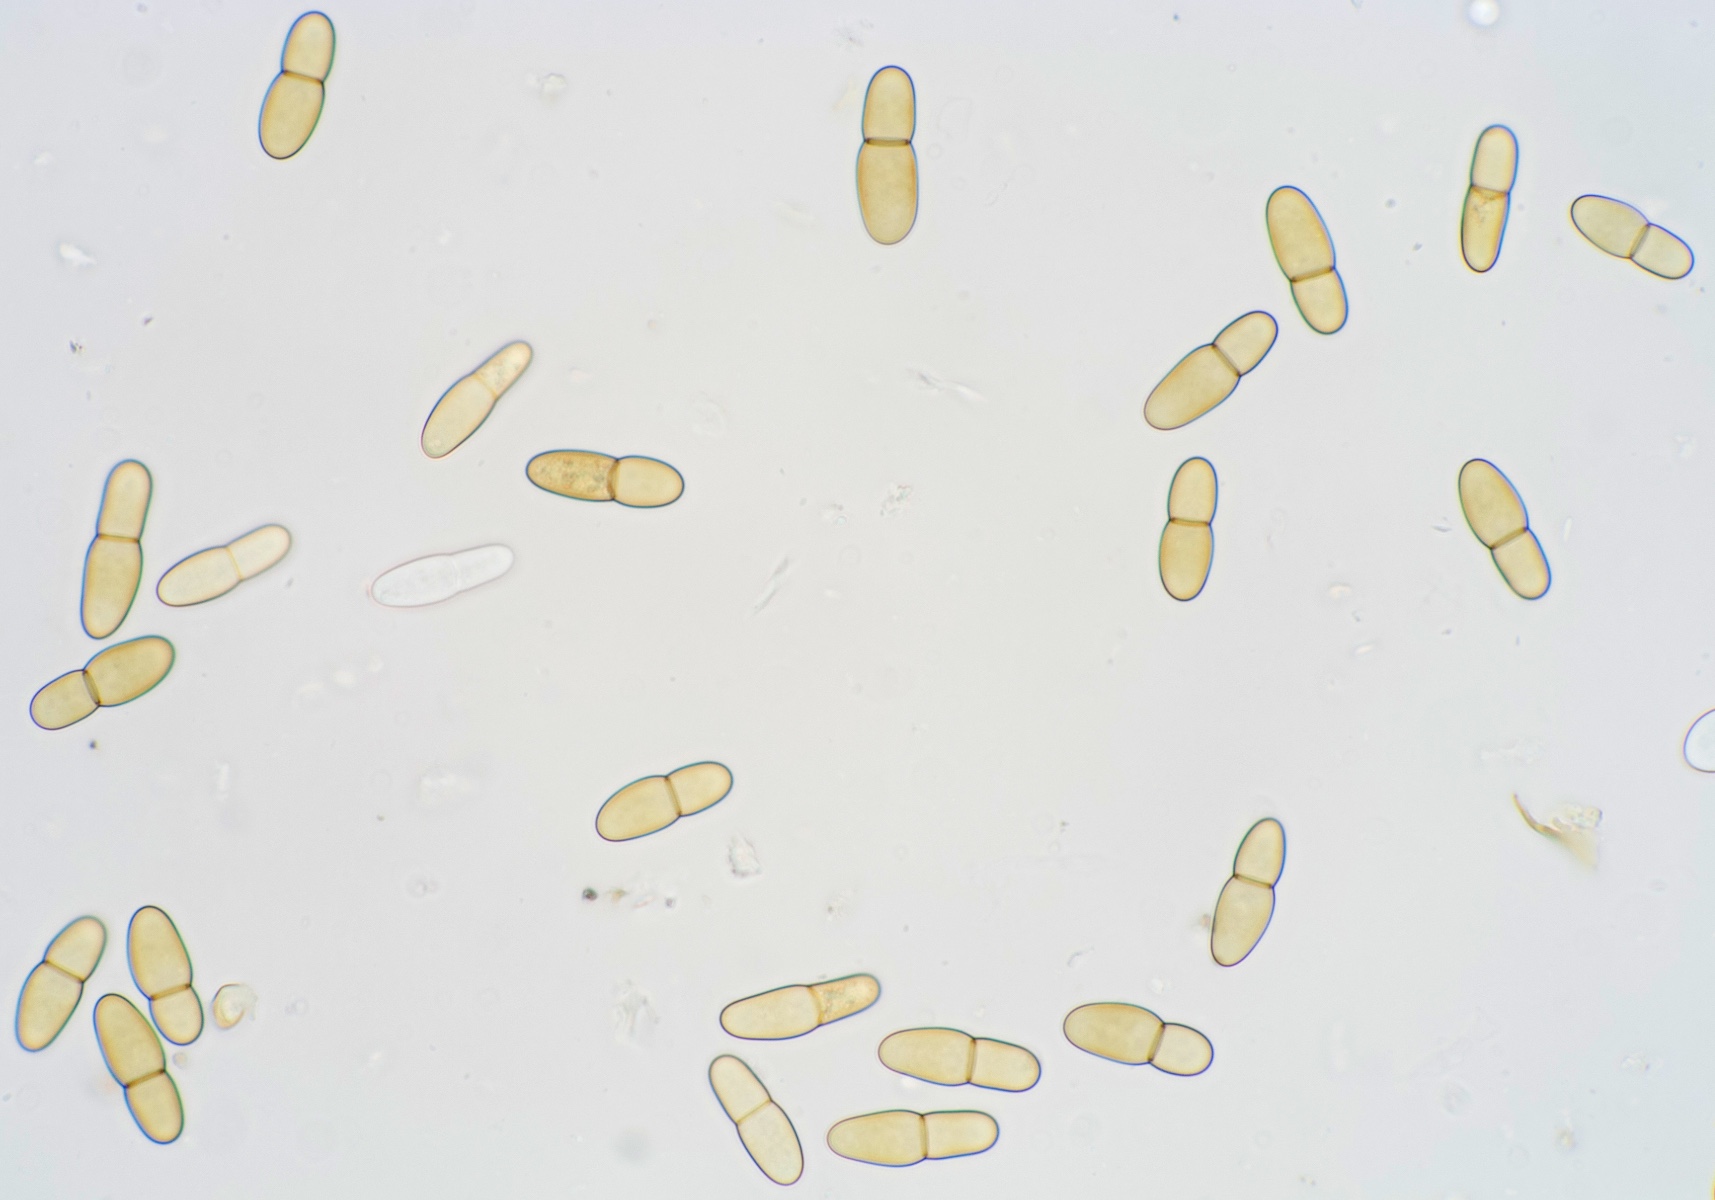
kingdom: Fungi
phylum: Ascomycota
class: Dothideomycetes
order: Dothideales
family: Dothideaceae
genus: Dothidea
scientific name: Dothidea sambuci
